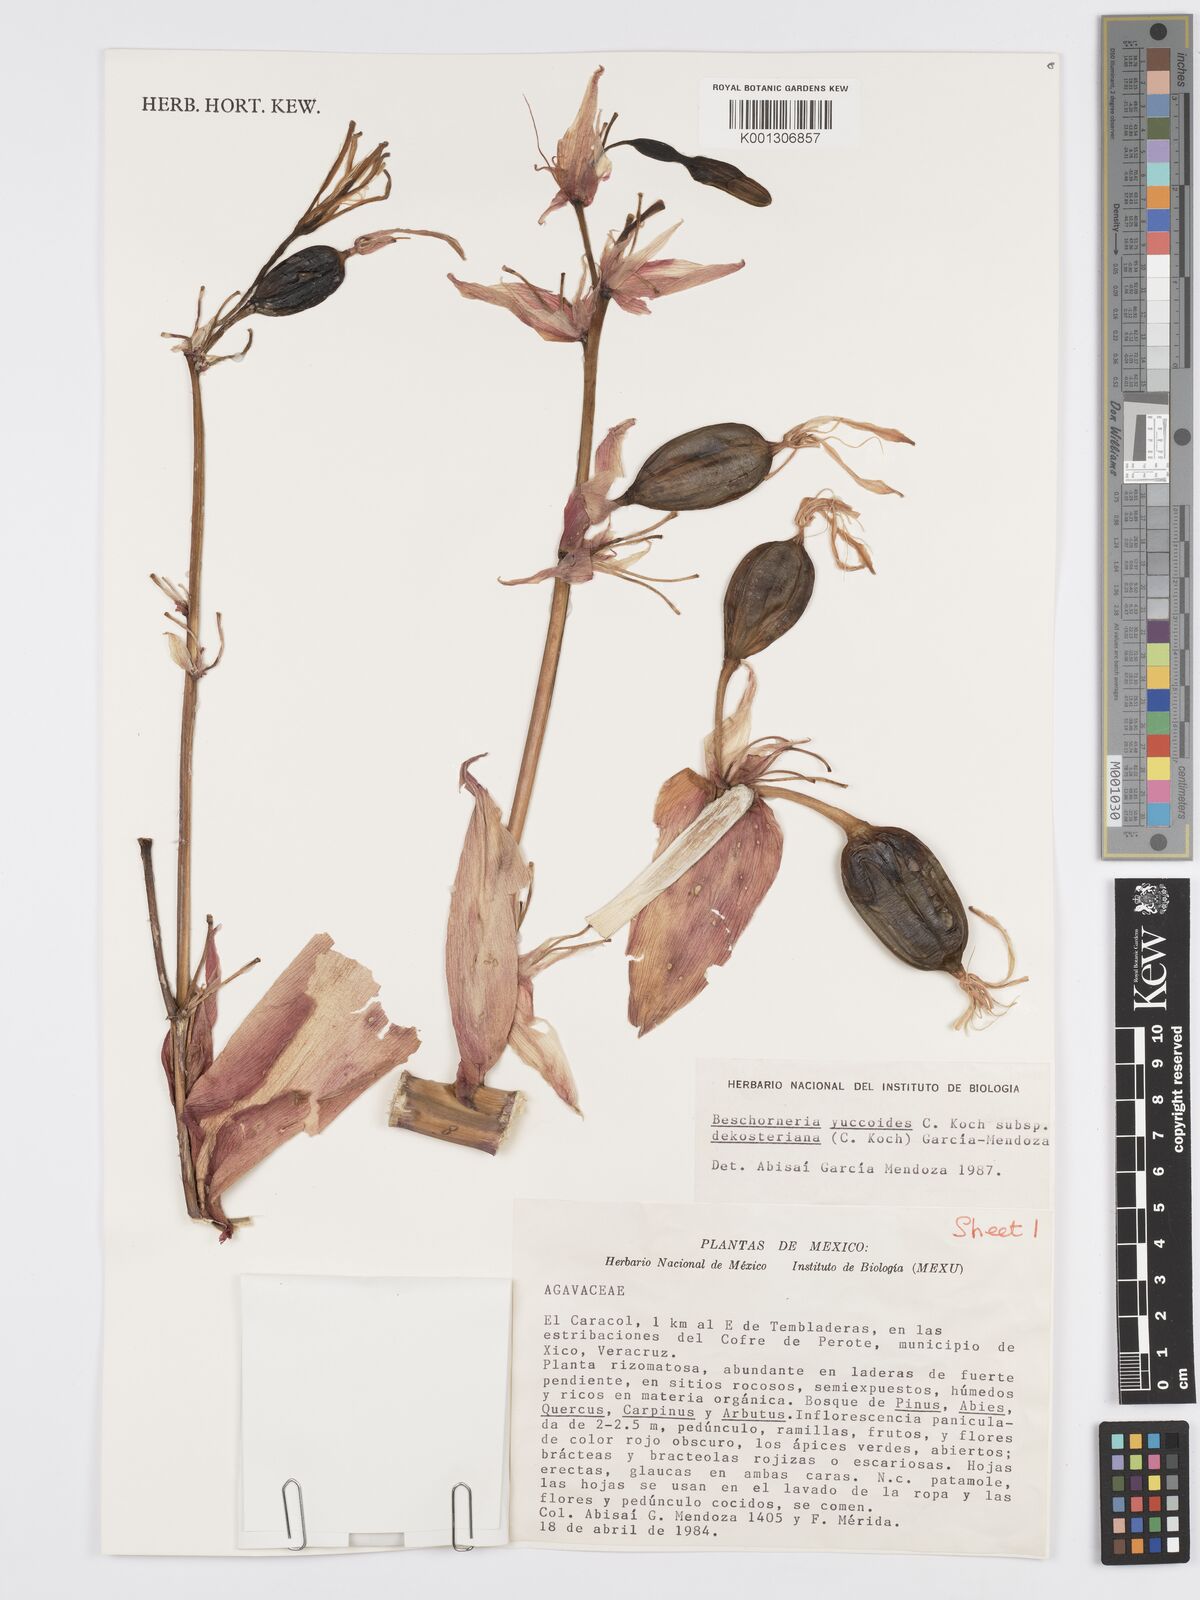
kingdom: Plantae
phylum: Tracheophyta
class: Liliopsida
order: Asparagales
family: Asparagaceae
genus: Beschorneria
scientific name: Beschorneria yuccoides
